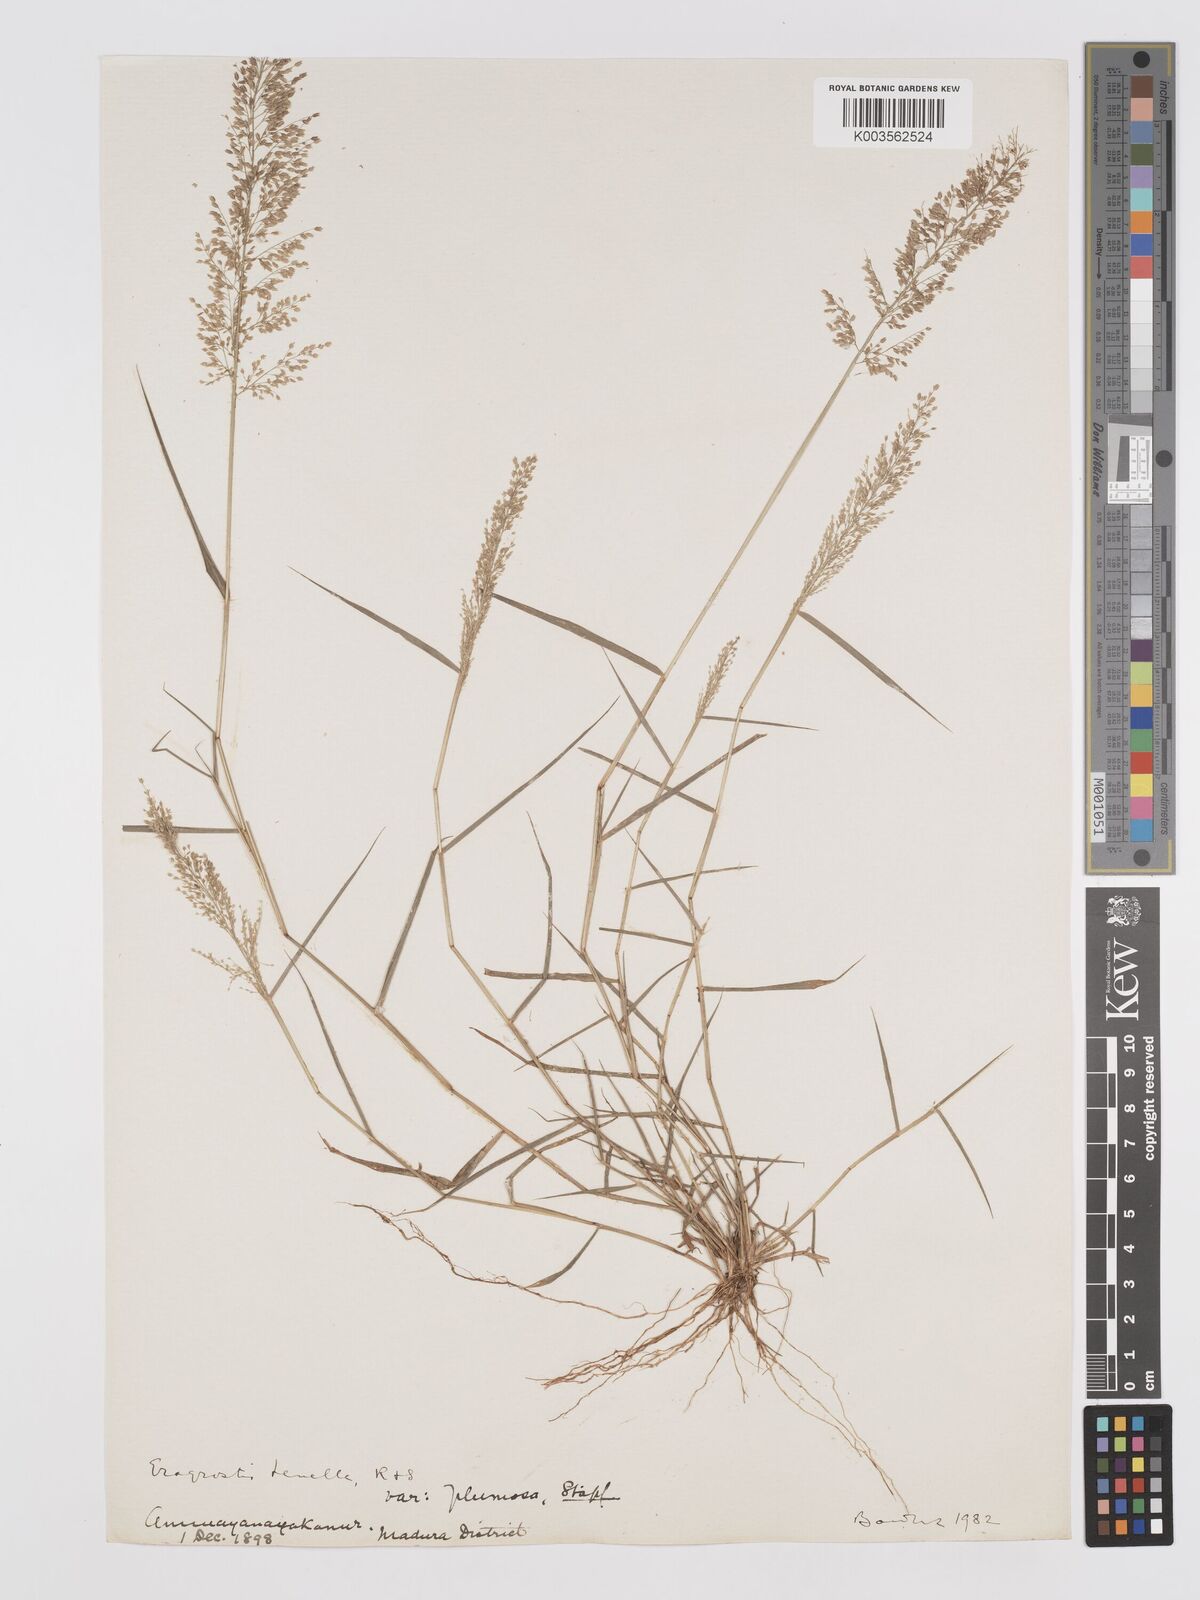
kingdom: Plantae
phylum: Tracheophyta
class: Liliopsida
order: Poales
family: Poaceae
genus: Eragrostis
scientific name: Eragrostis tenella
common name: Japanese lovegrass
